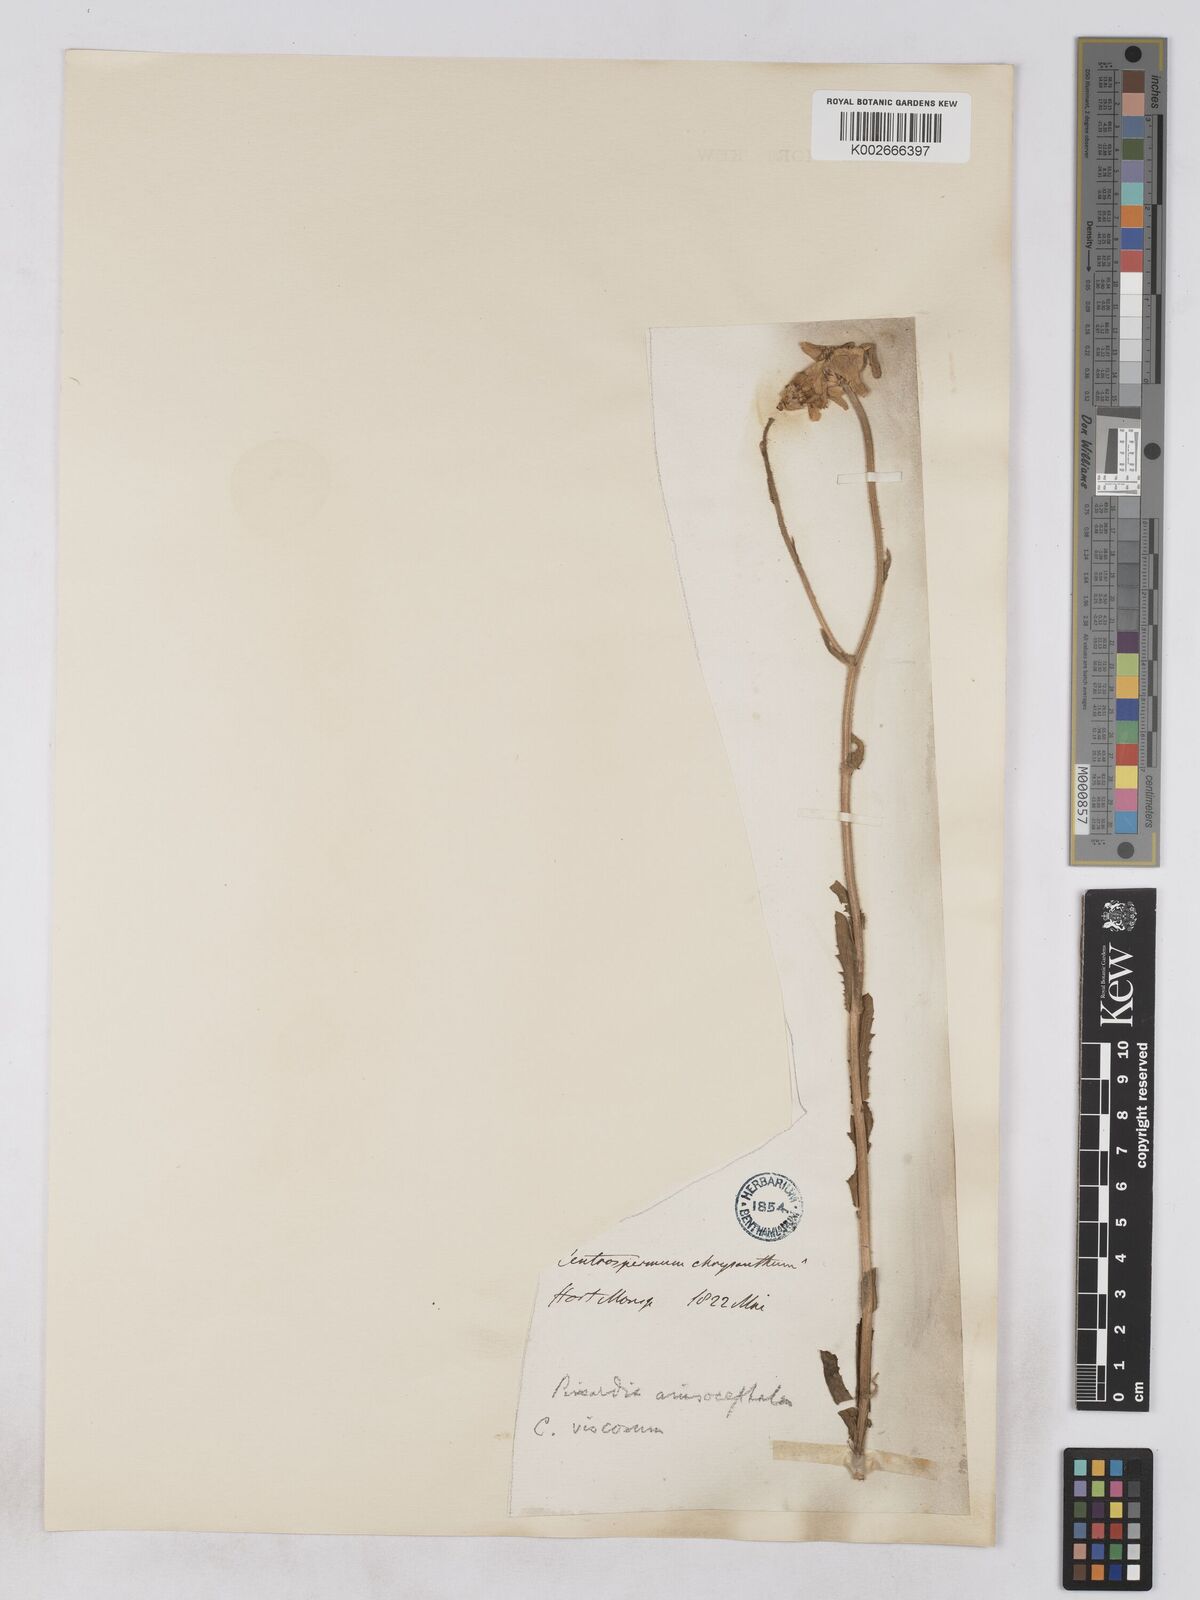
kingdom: Plantae
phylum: Tracheophyta
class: Magnoliopsida
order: Asterales
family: Asteraceae
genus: Heteranthemis
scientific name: Heteranthemis
